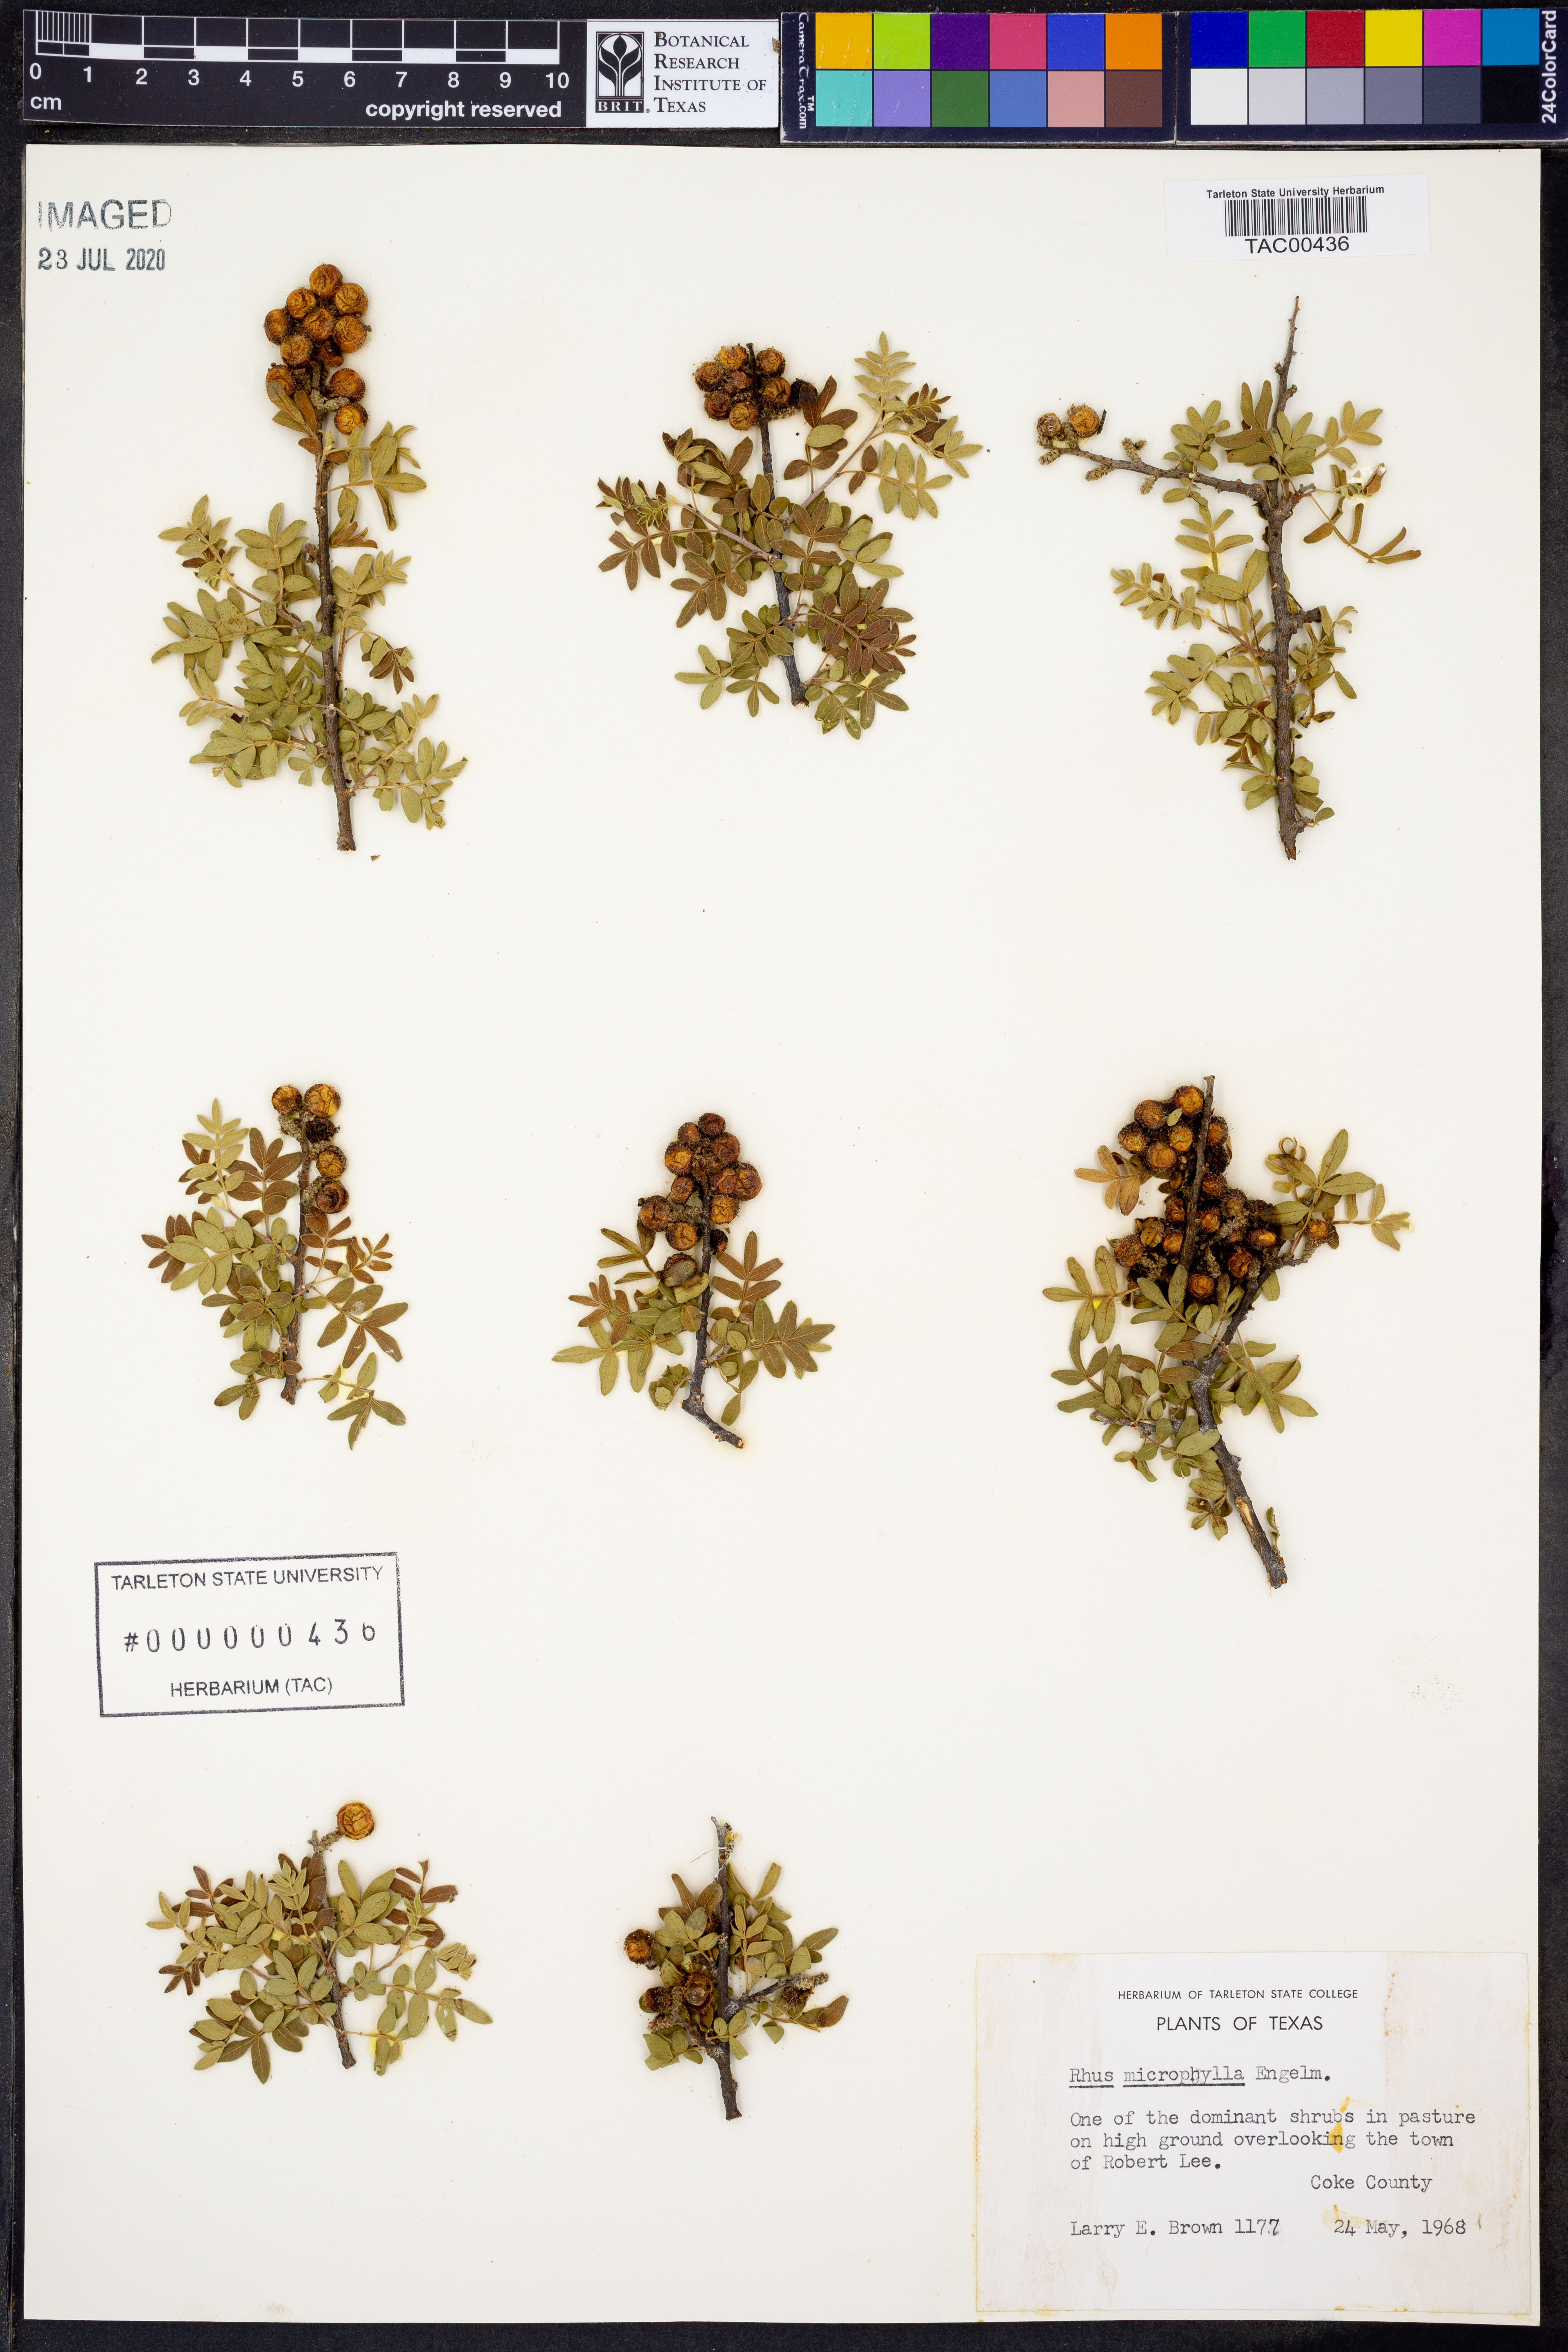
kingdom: Plantae
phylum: Tracheophyta
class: Magnoliopsida
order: Sapindales
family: Anacardiaceae
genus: Rhus
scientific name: Rhus microphylla
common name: Desert sumac
